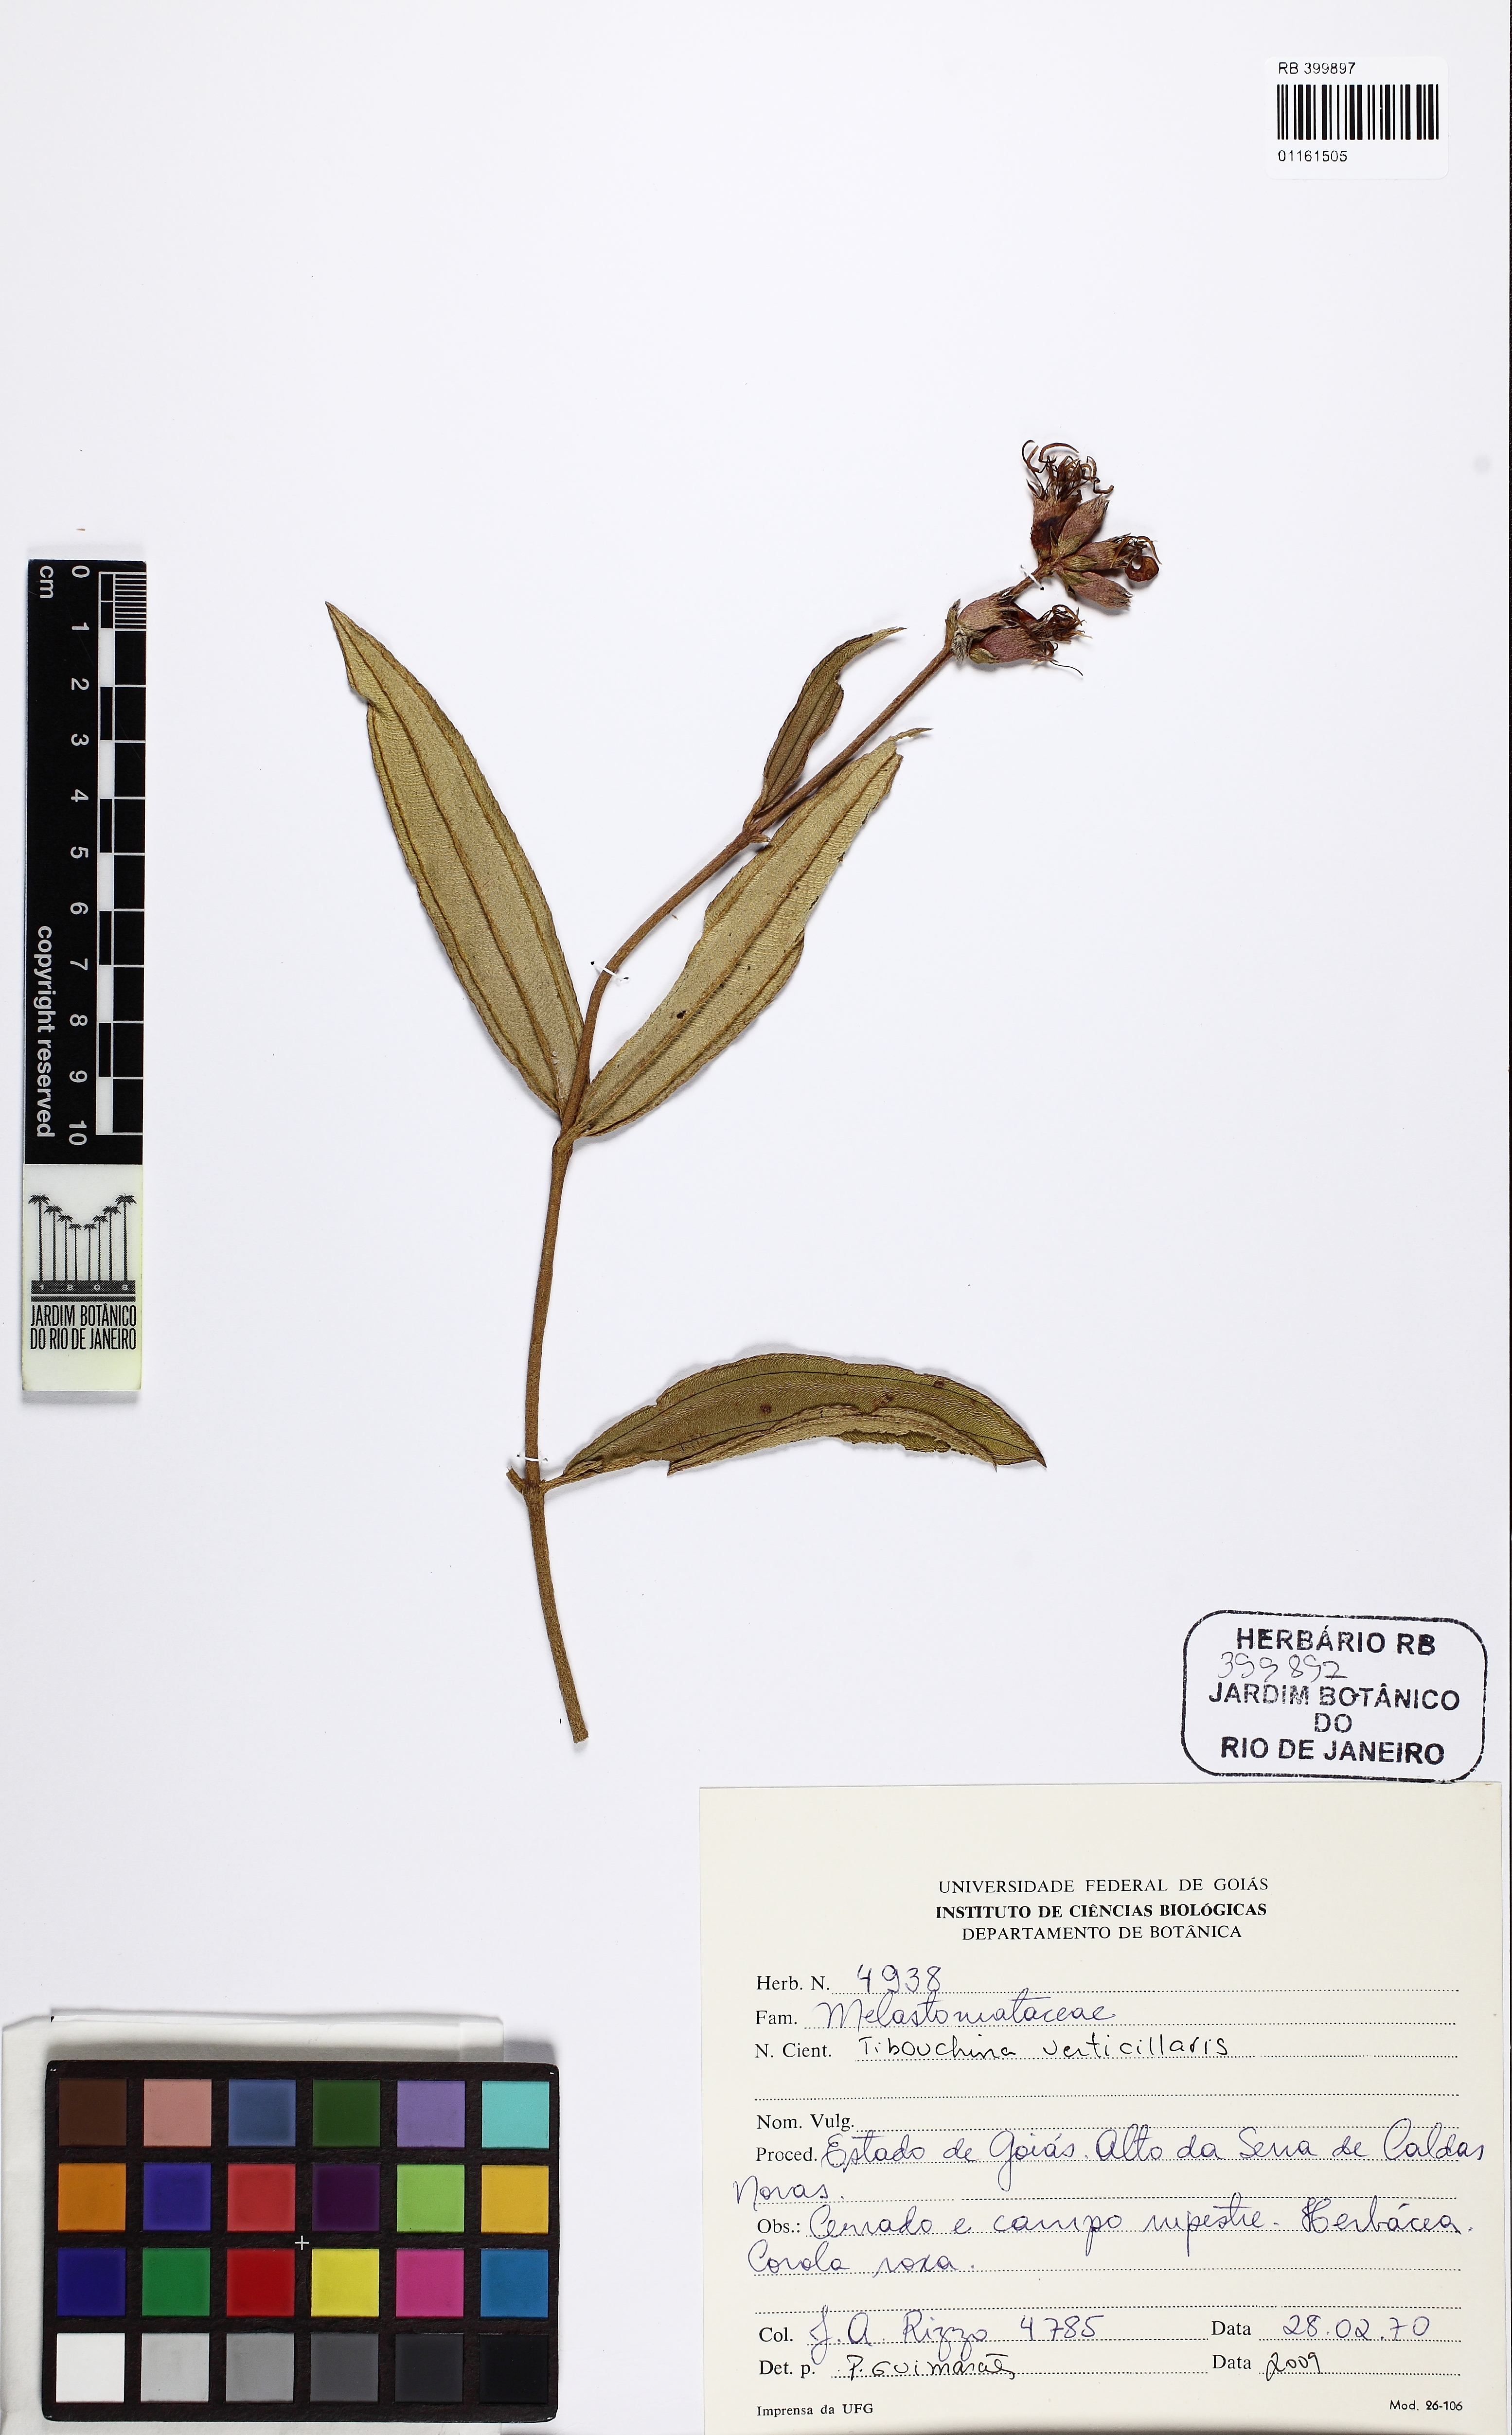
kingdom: Plantae
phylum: Tracheophyta
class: Magnoliopsida
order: Myrtales
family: Melastomataceae
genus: Pleroma
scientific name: Pleroma aegopogon
